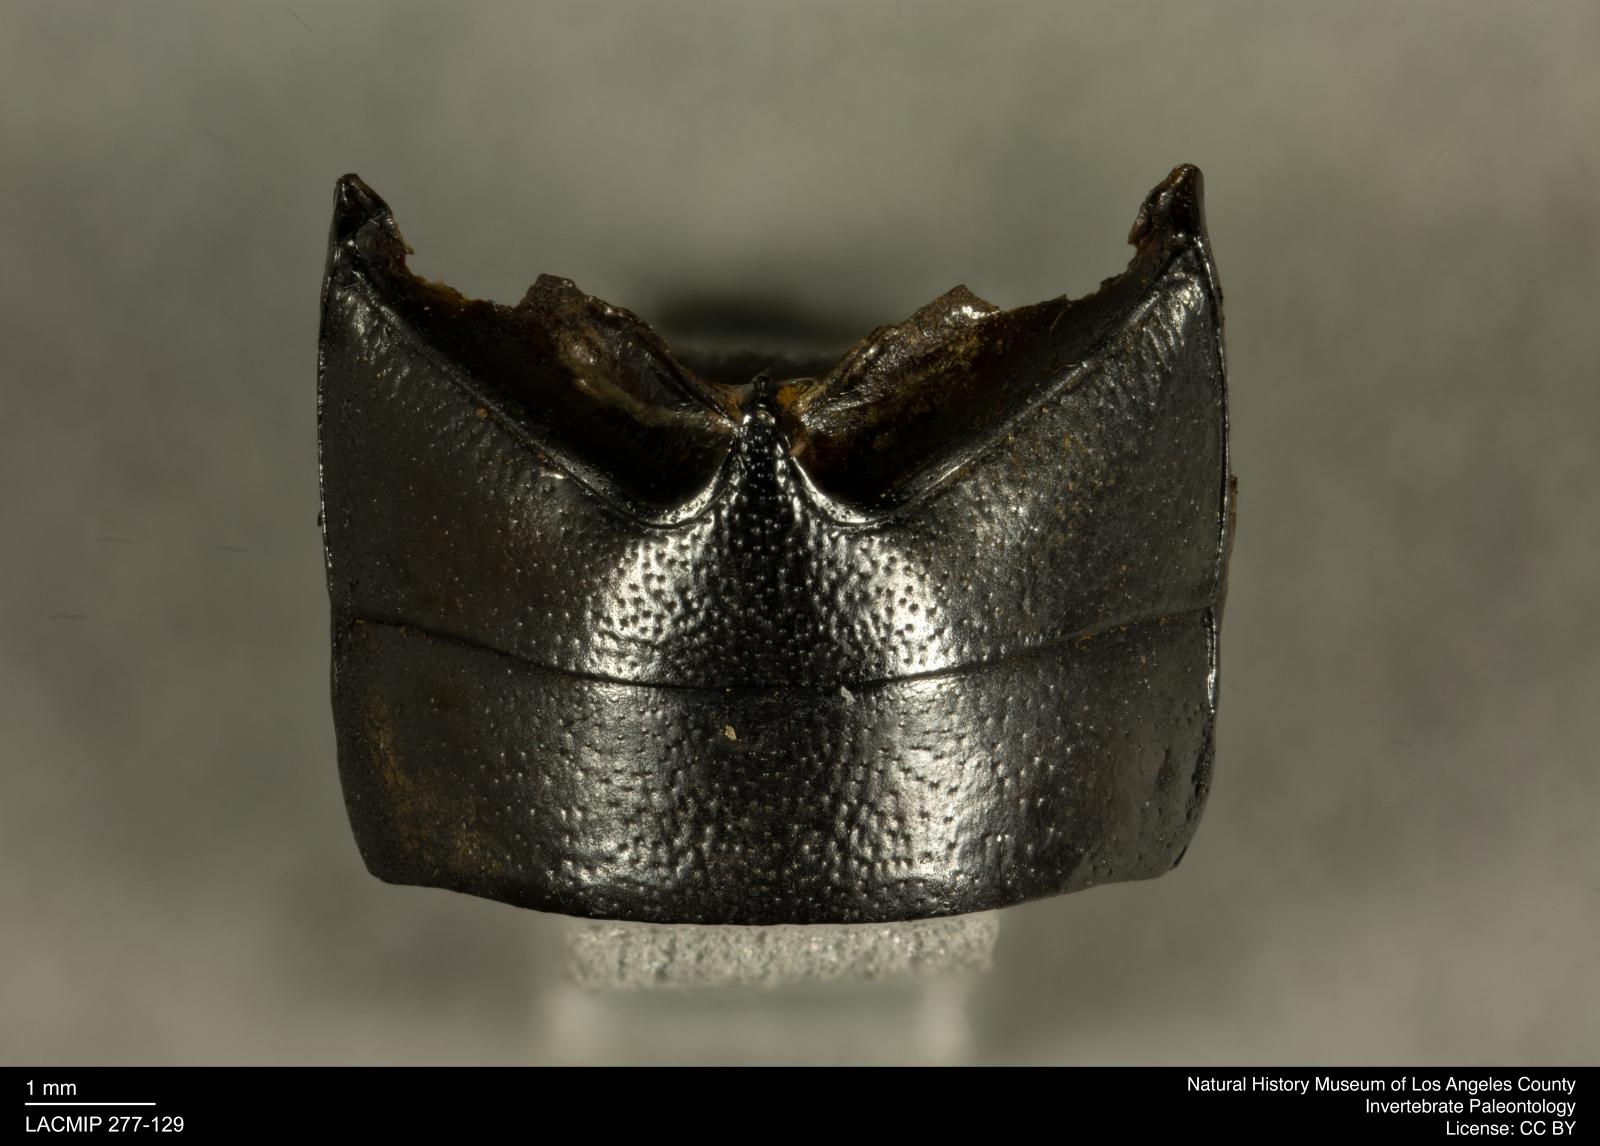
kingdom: Animalia
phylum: Arthropoda
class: Insecta
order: Coleoptera
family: Tenebrionidae
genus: Coniontis
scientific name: Coniontis abdominalis
